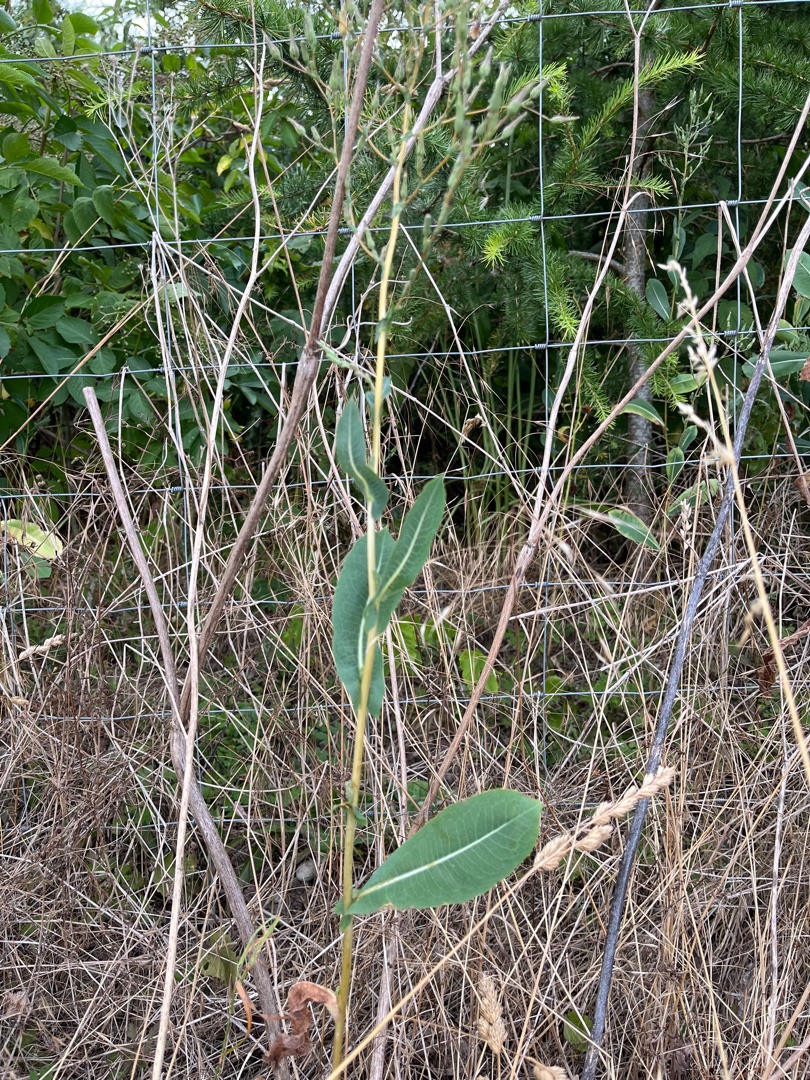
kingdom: Plantae
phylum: Tracheophyta
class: Magnoliopsida
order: Asterales
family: Asteraceae
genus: Lactuca
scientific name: Lactuca serriola
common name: Tornet salat
